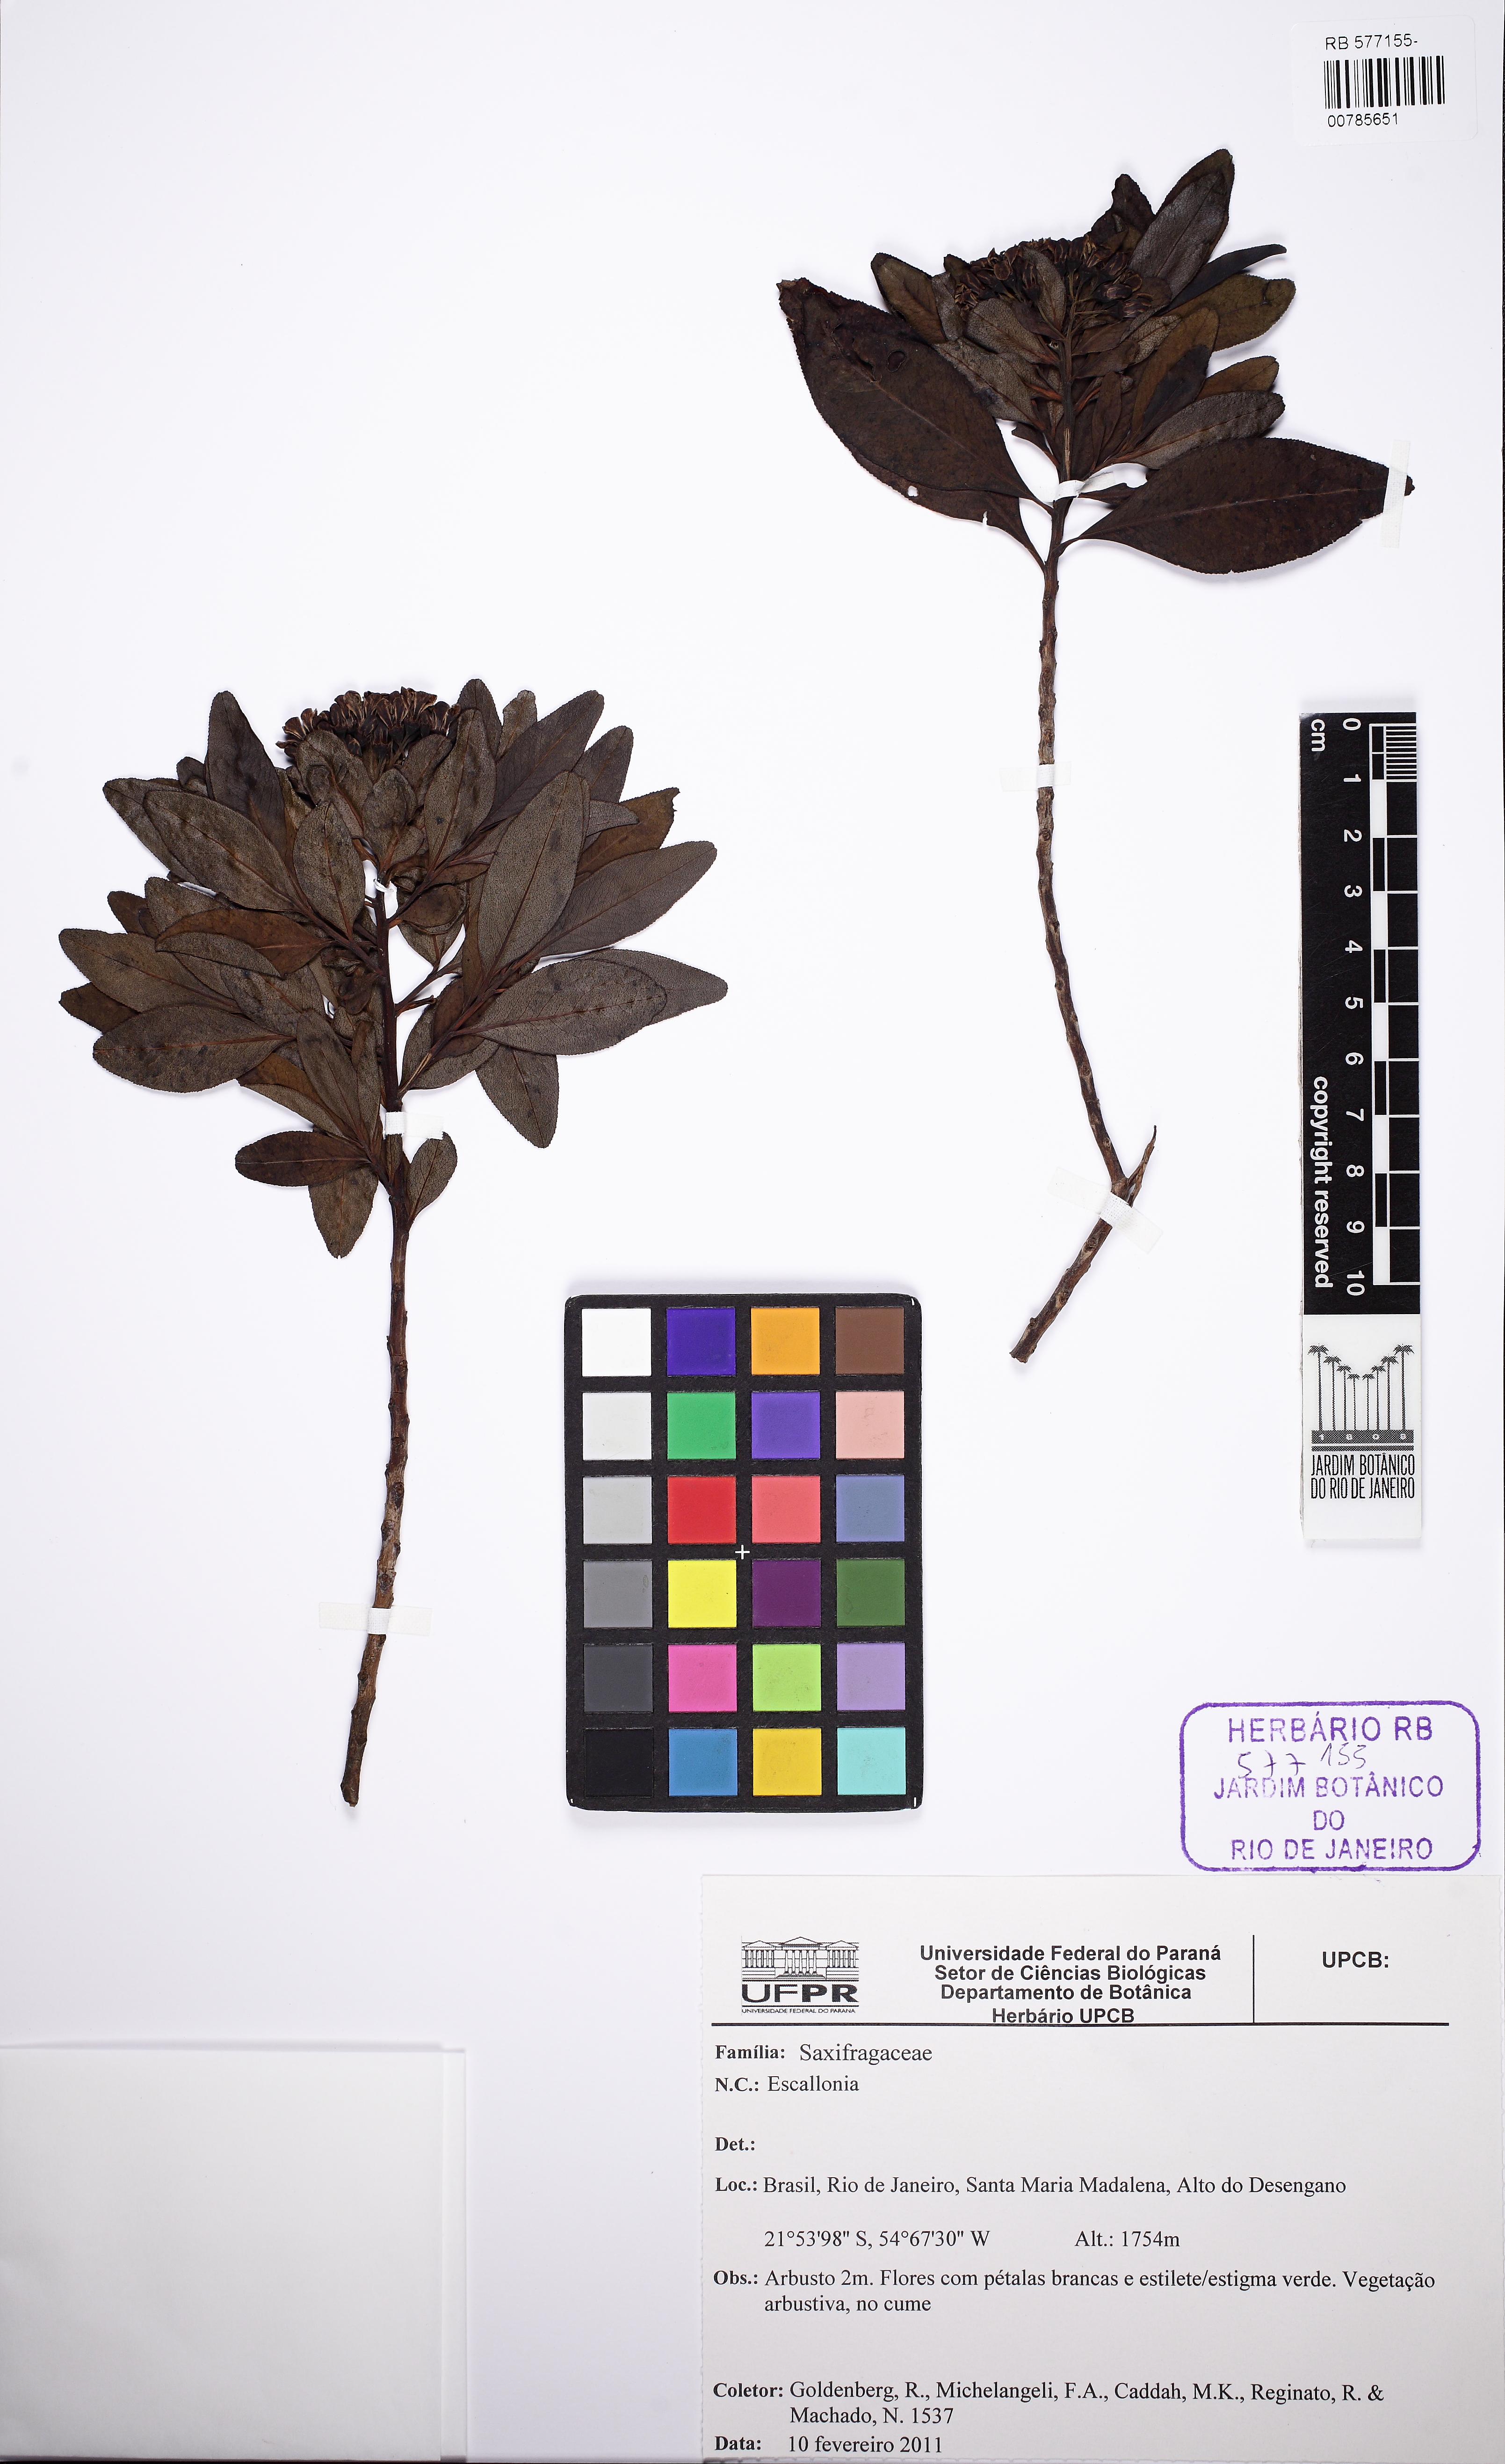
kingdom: Plantae
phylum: Tracheophyta
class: Magnoliopsida
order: Escalloniales
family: Escalloniaceae
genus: Escallonia
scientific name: Escallonia
